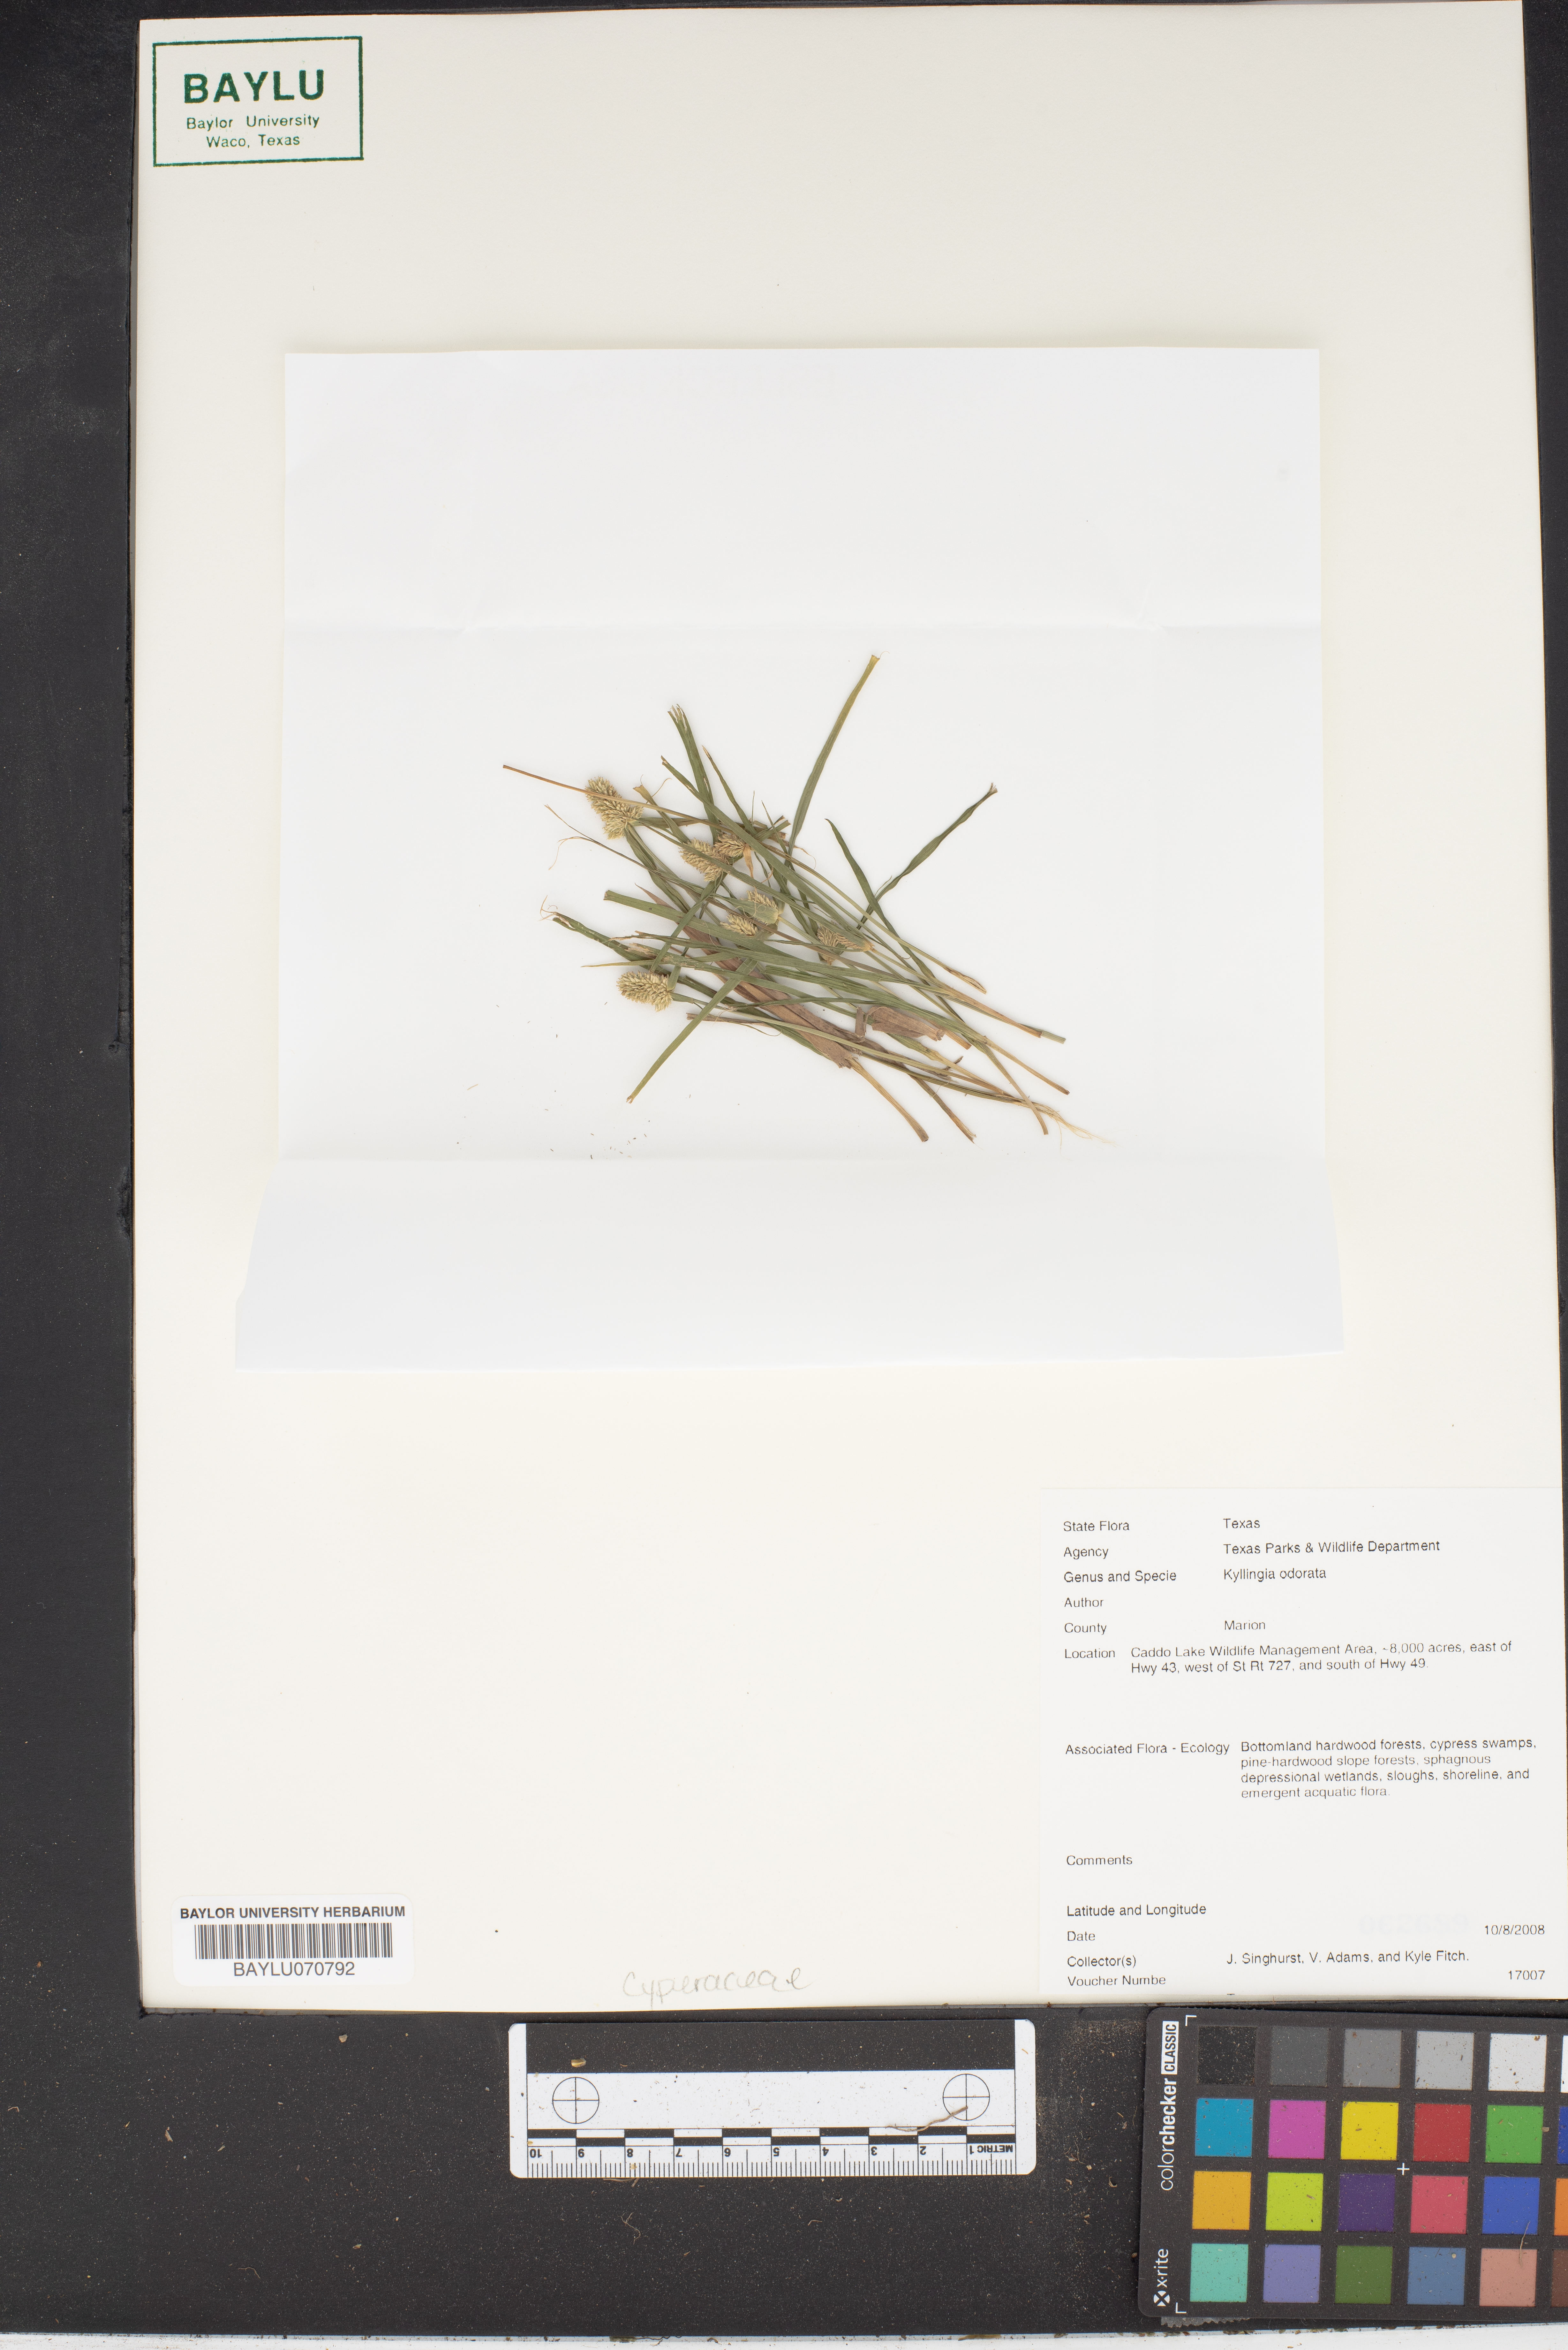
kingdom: Plantae
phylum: Tracheophyta
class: Liliopsida
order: Poales
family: Cyperaceae
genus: Cyperus
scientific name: Cyperus sesquiflorus
